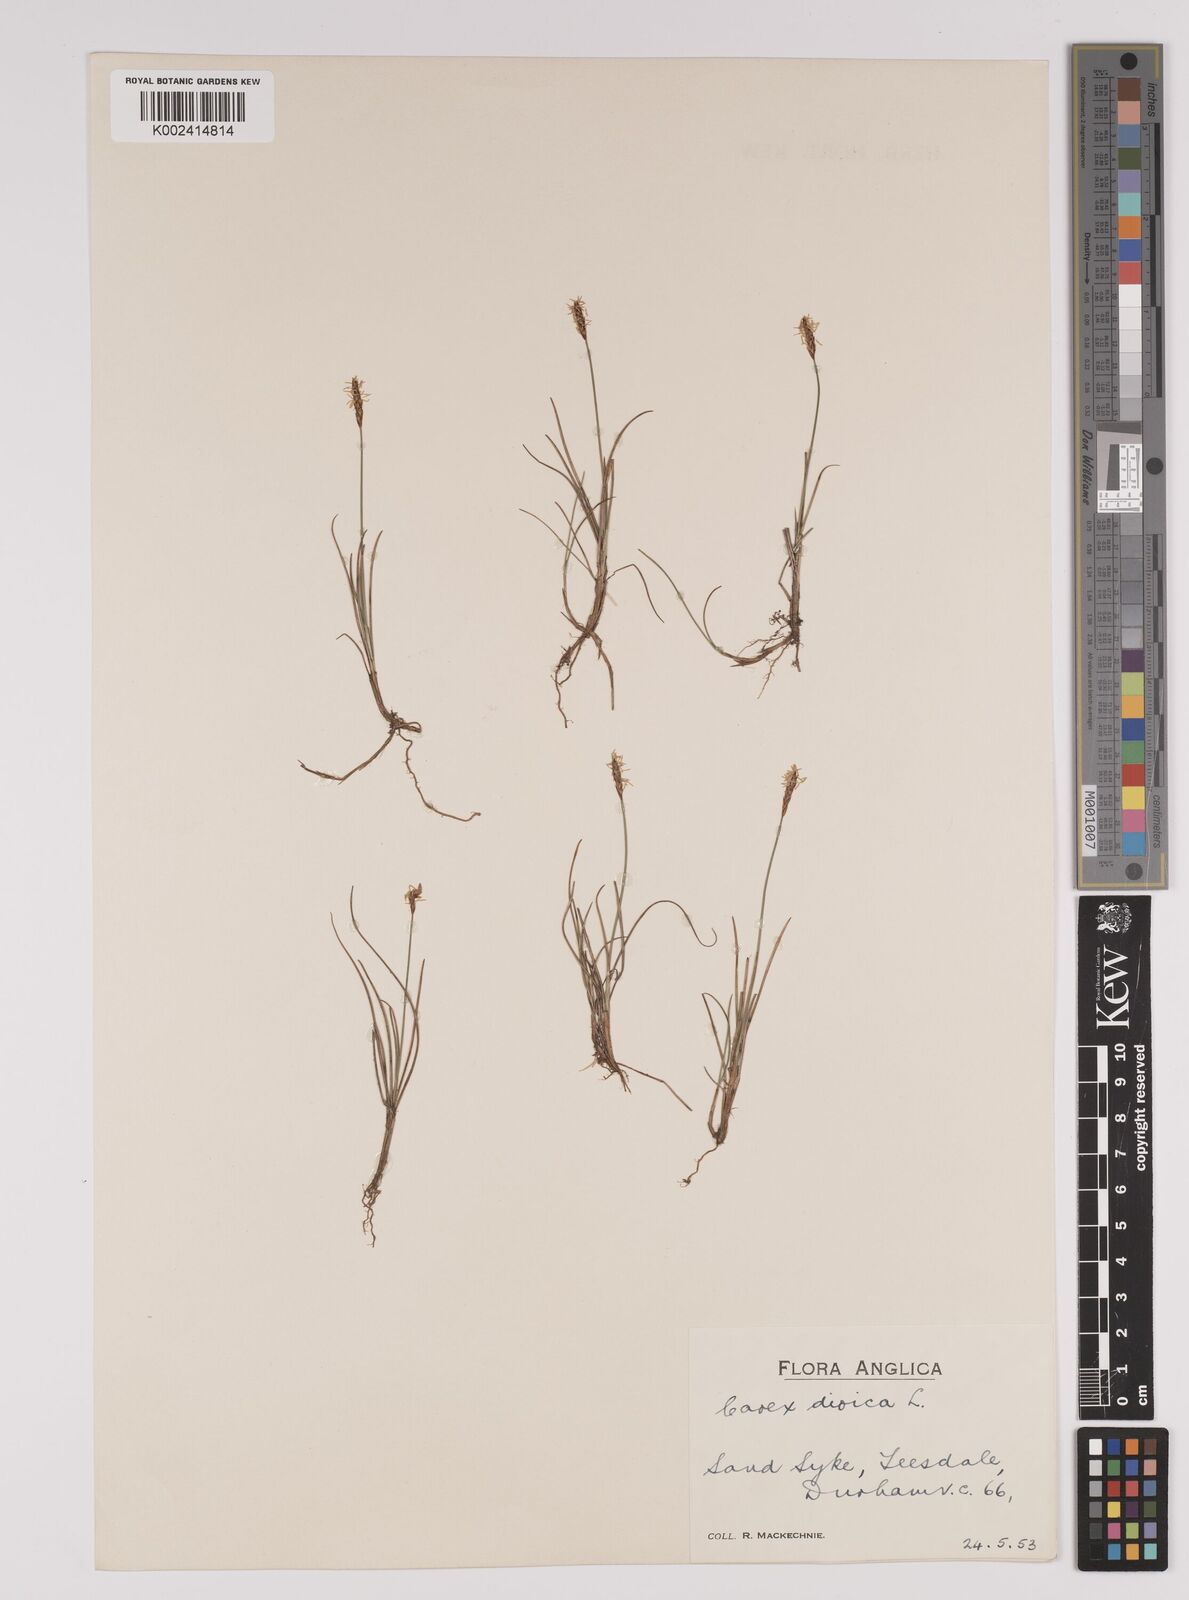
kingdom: Plantae
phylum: Tracheophyta
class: Liliopsida
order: Poales
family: Cyperaceae
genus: Carex
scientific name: Carex dioica
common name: Dioecious sedge
